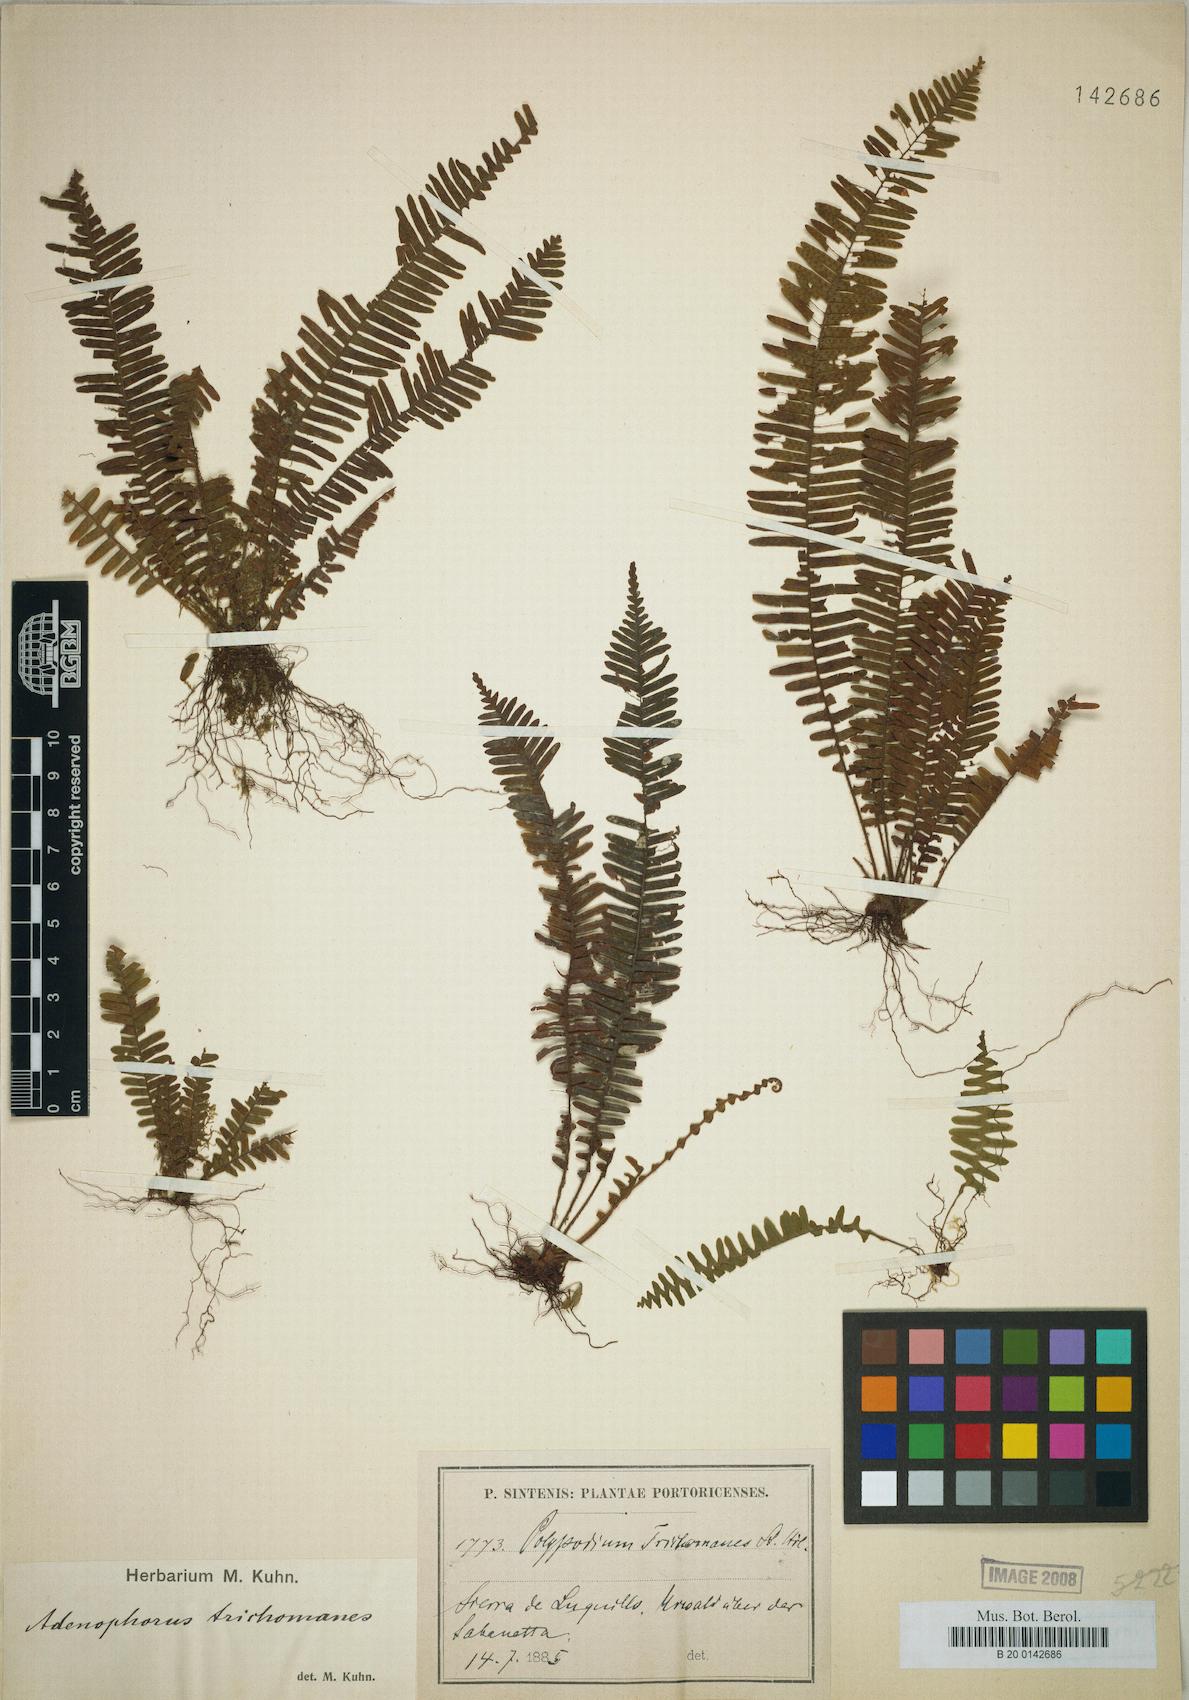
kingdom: Plantae
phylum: Tracheophyta
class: Polypodiopsida
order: Polypodiales
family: Polypodiaceae
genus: Mycopteris
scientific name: Mycopteris taxifolia
